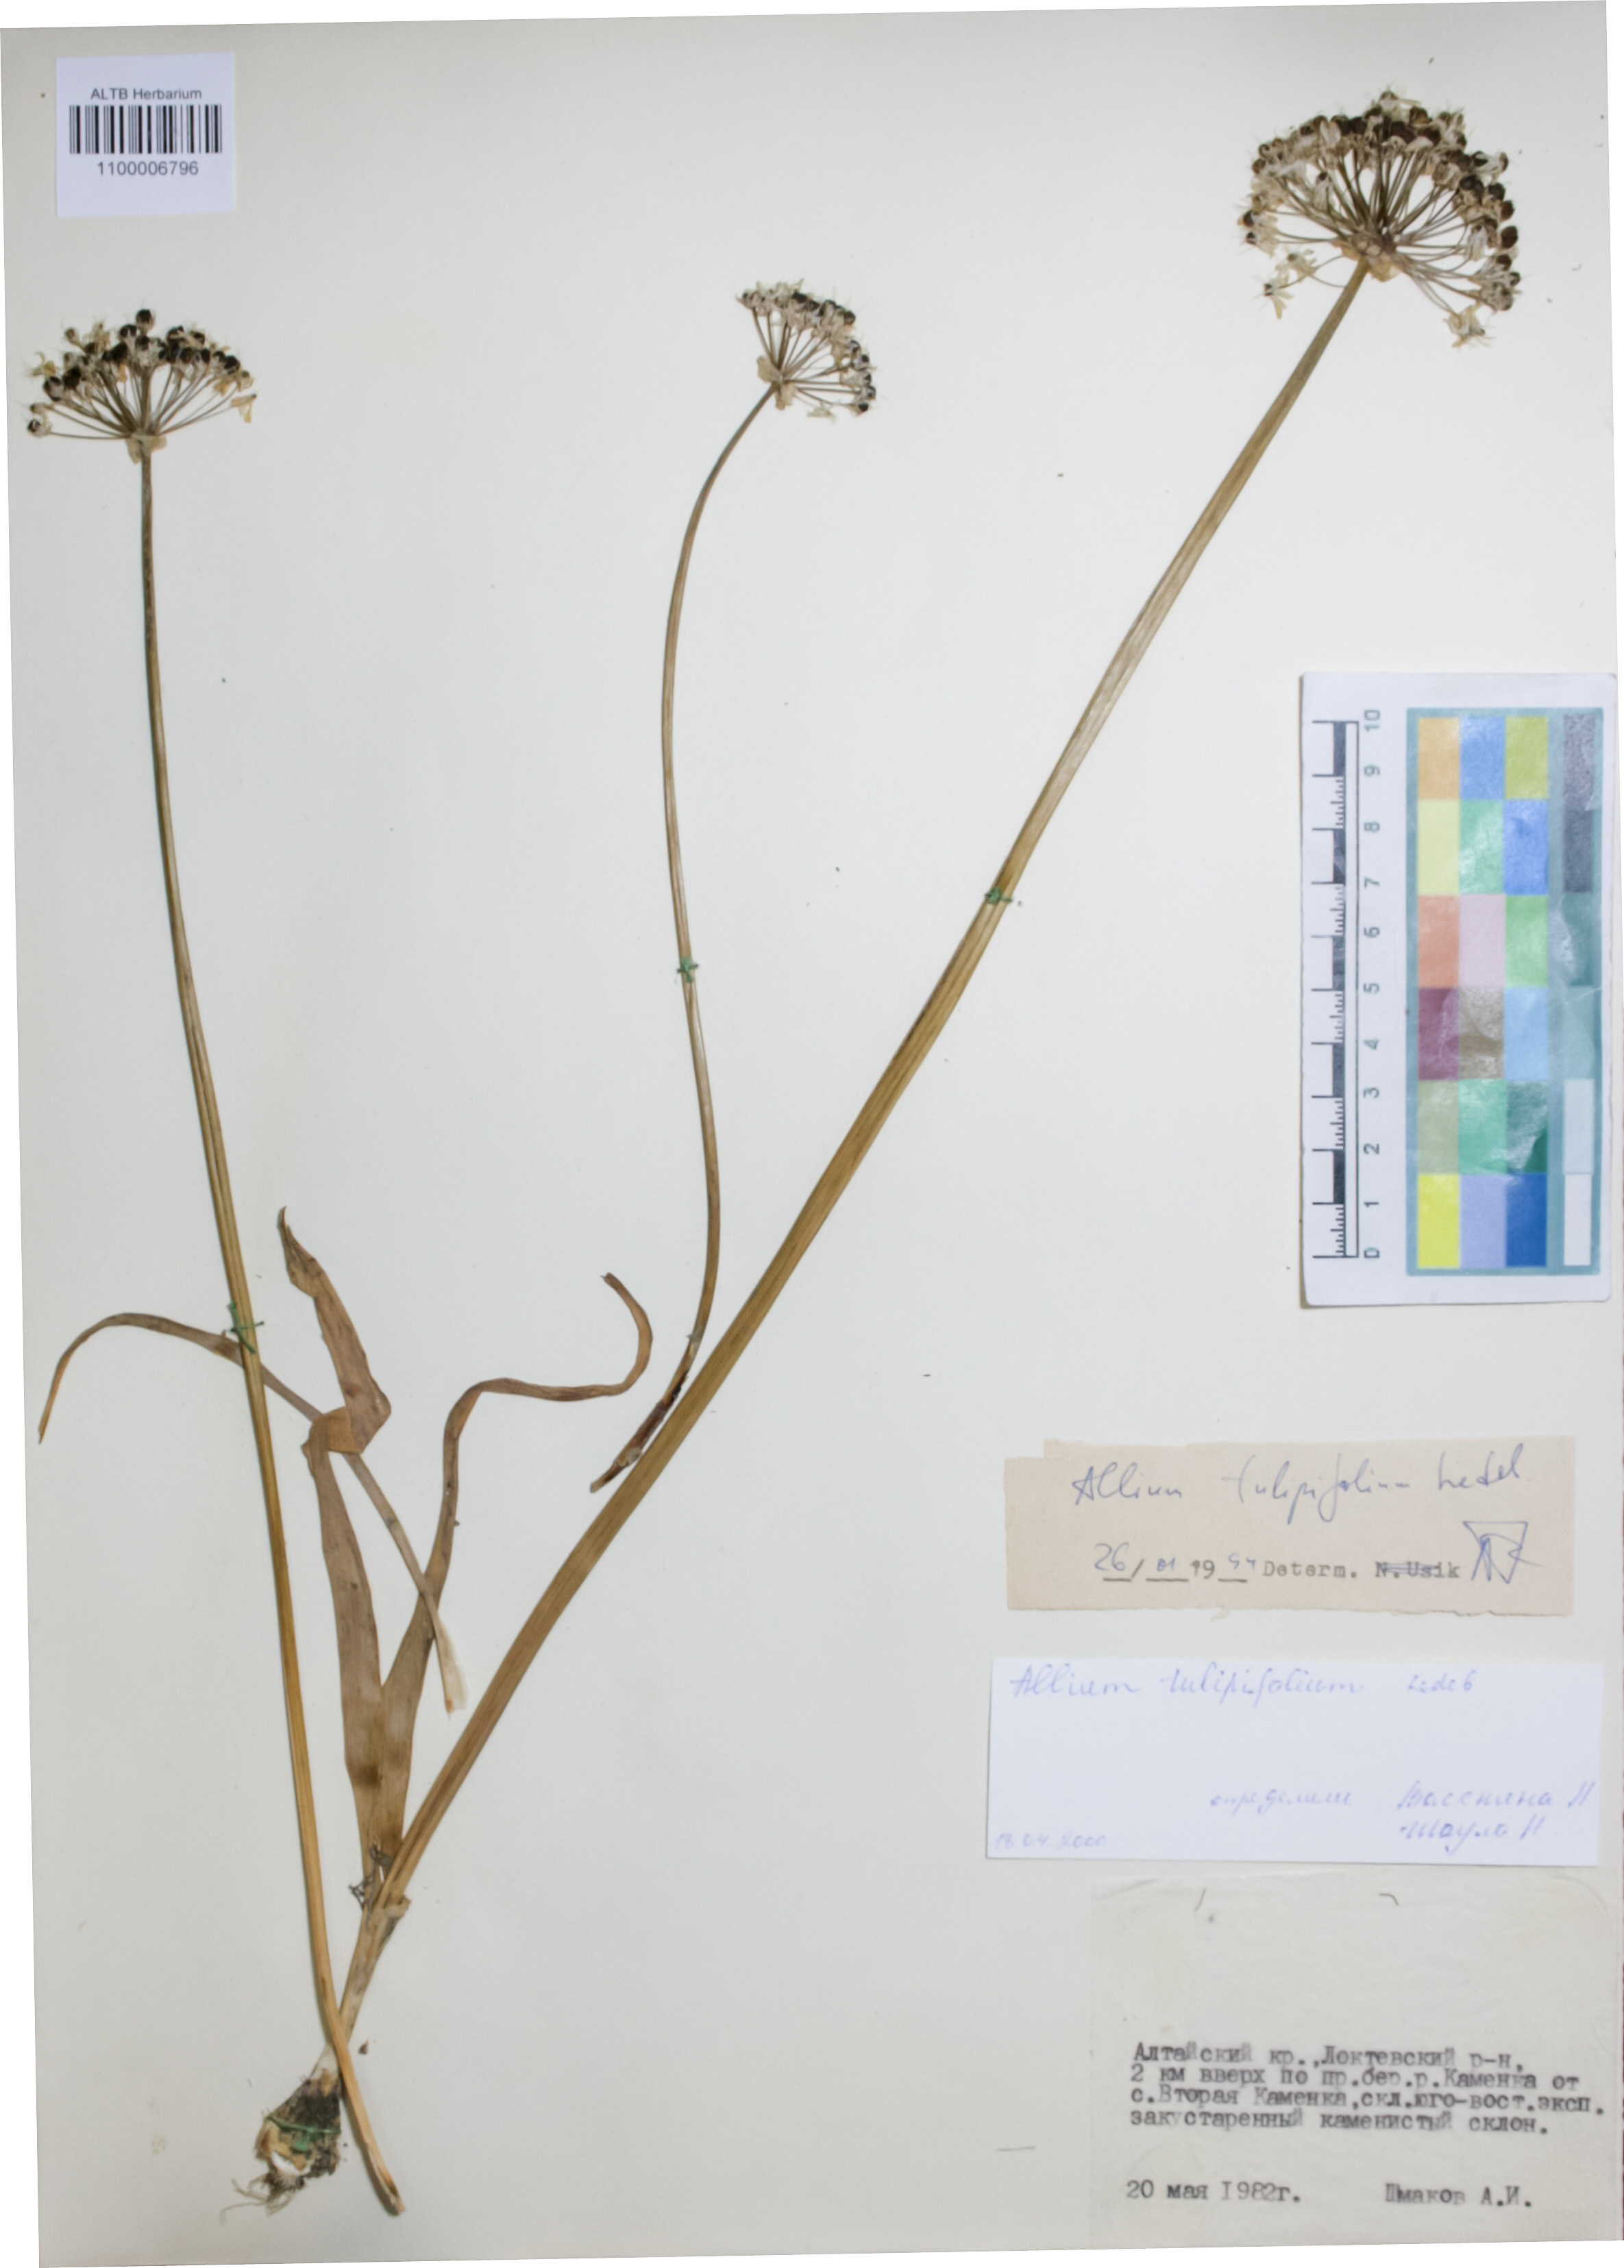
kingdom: Plantae
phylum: Tracheophyta
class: Liliopsida
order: Asparagales
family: Amaryllidaceae
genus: Allium
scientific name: Allium tulipifolium
